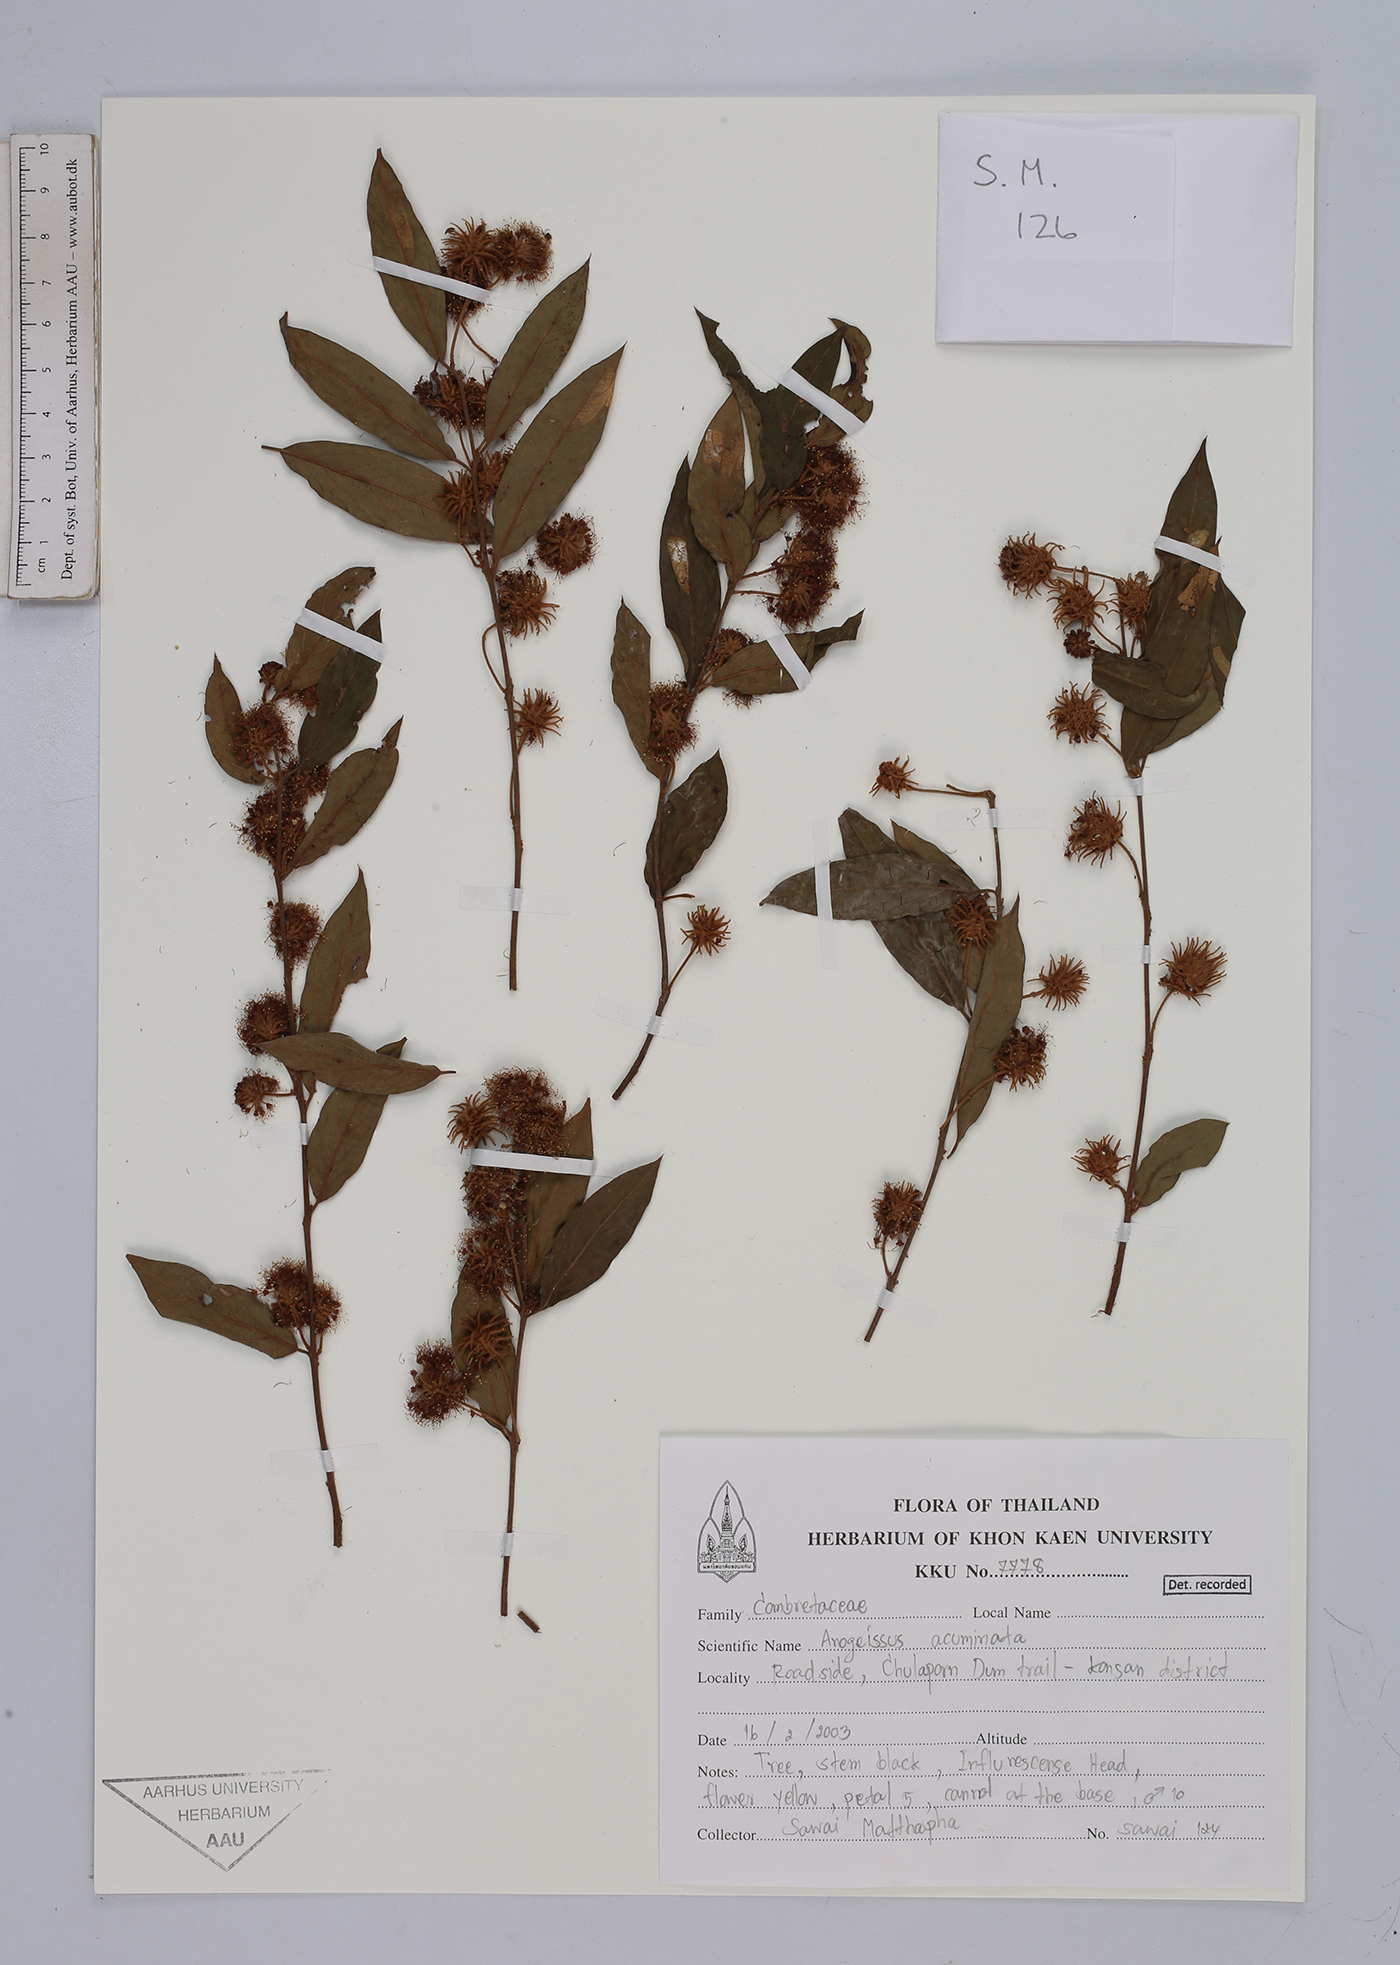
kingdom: Plantae
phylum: Tracheophyta
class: Magnoliopsida
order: Myrtales
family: Combretaceae
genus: Terminalia
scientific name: Terminalia phillyreifolia
